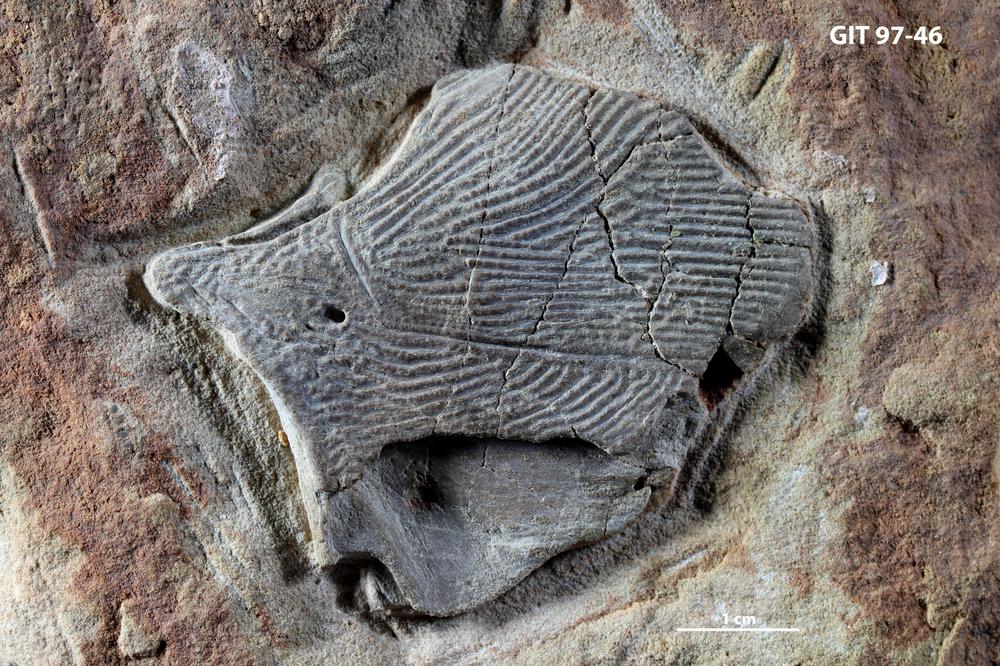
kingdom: Animalia
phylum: Chordata
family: Holonematidae
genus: Holonema
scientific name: Holonema
